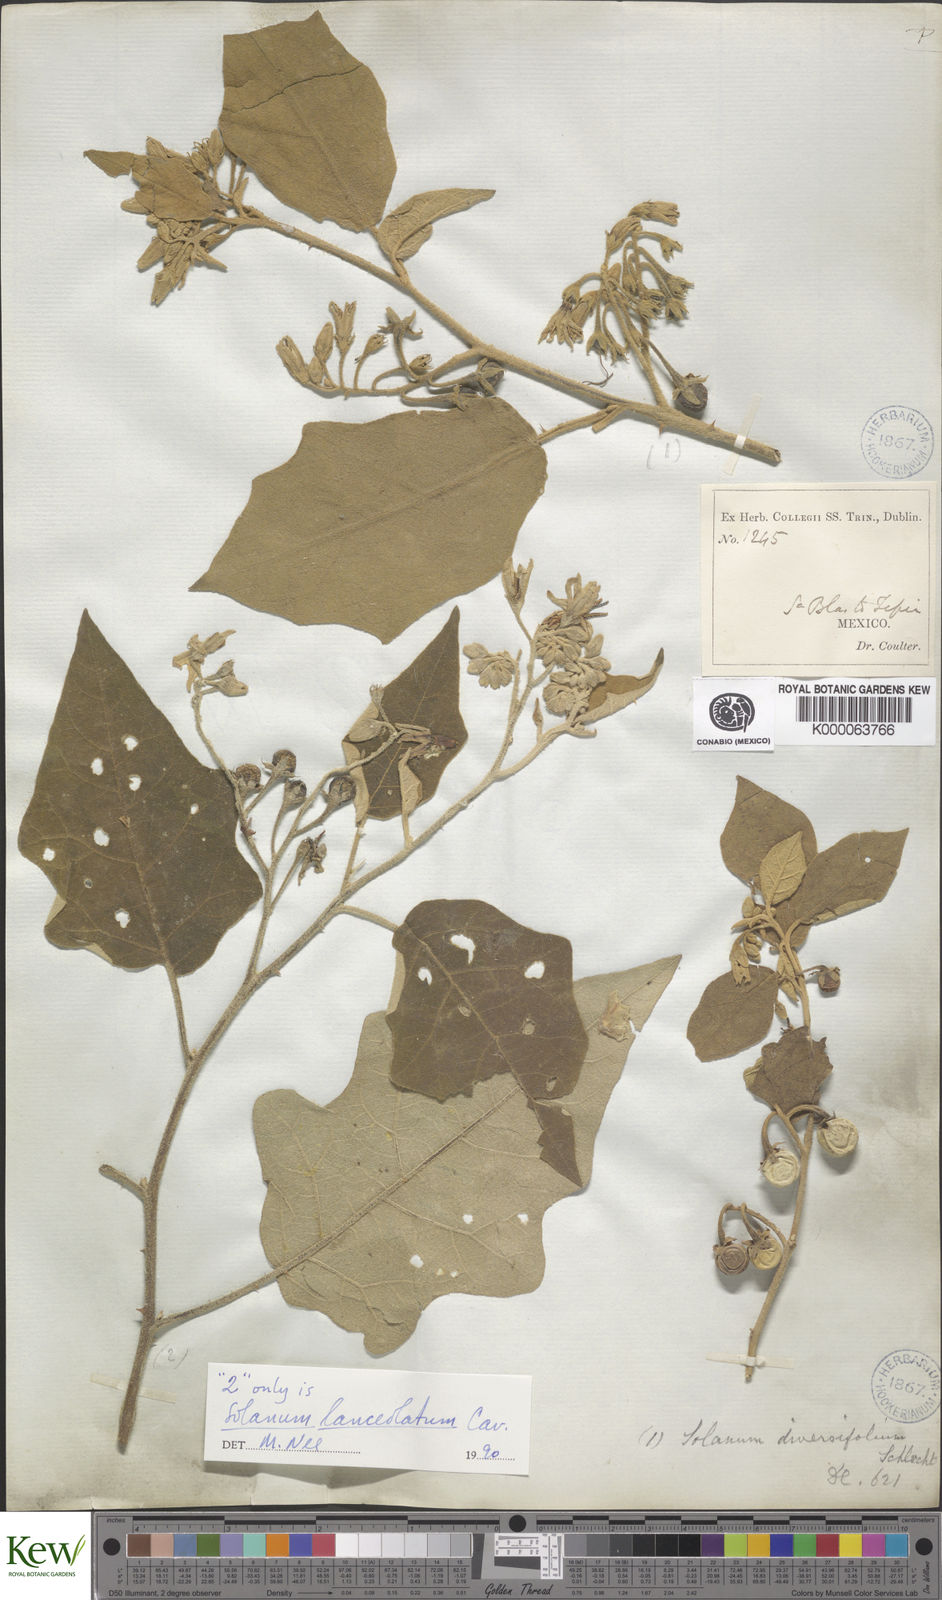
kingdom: Plantae
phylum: Tracheophyta
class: Magnoliopsida
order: Solanales
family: Solanaceae
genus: Solanum
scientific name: Solanum lanceolatum
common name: Orangeberry nightshade
